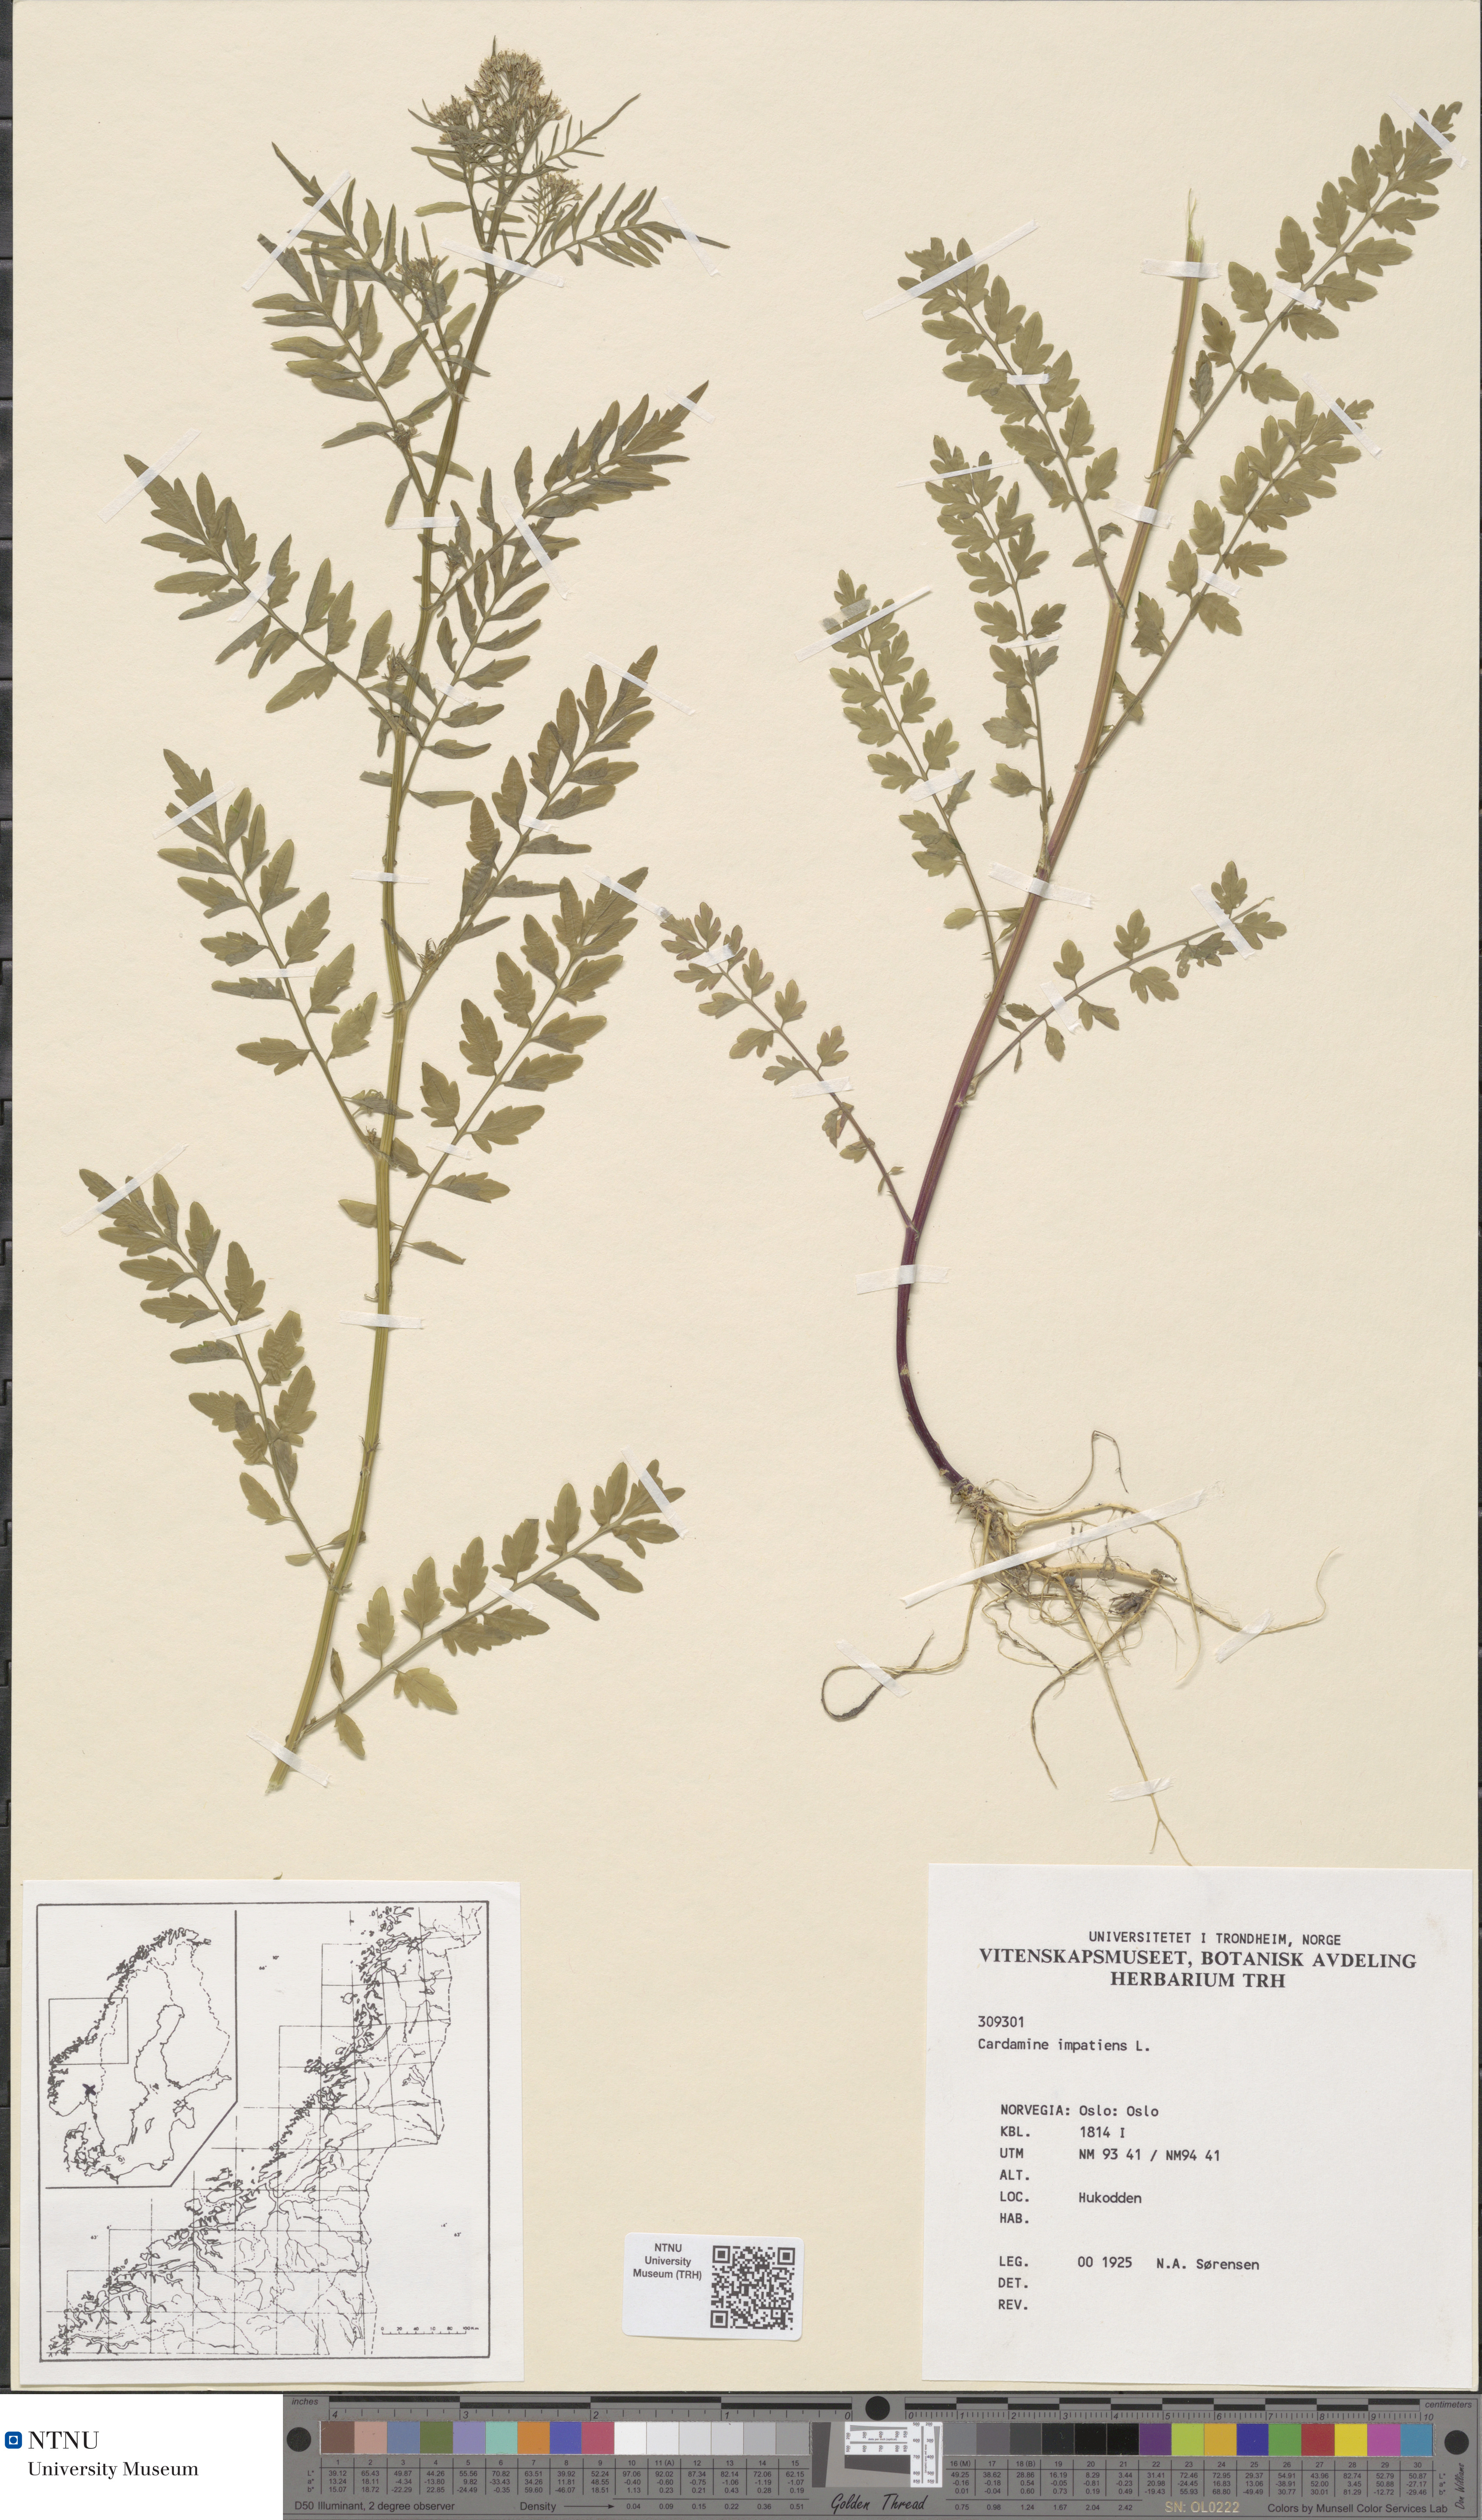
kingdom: Plantae
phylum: Tracheophyta
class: Magnoliopsida
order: Brassicales
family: Brassicaceae
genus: Cardamine
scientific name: Cardamine impatiens
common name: Narrow-leaved bitter-cress
